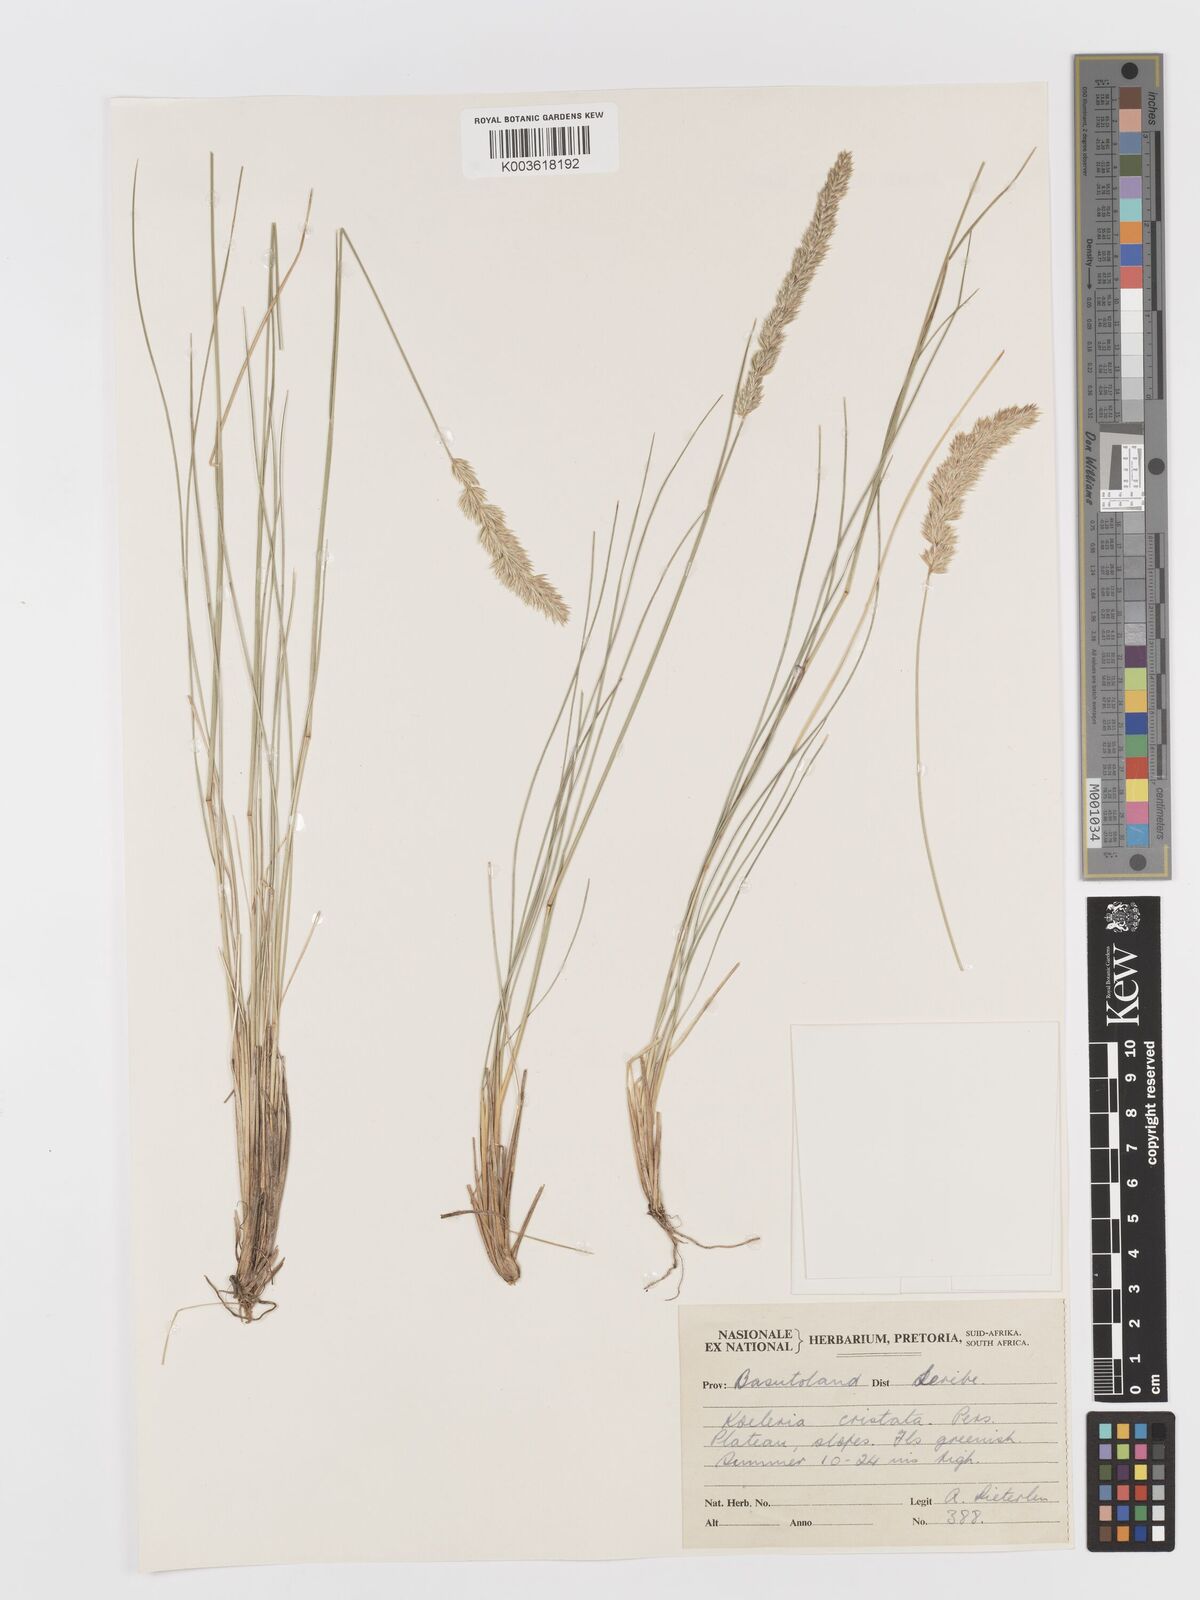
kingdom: Plantae
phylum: Tracheophyta
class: Liliopsida
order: Poales
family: Poaceae
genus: Koeleria
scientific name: Koeleria capensis
